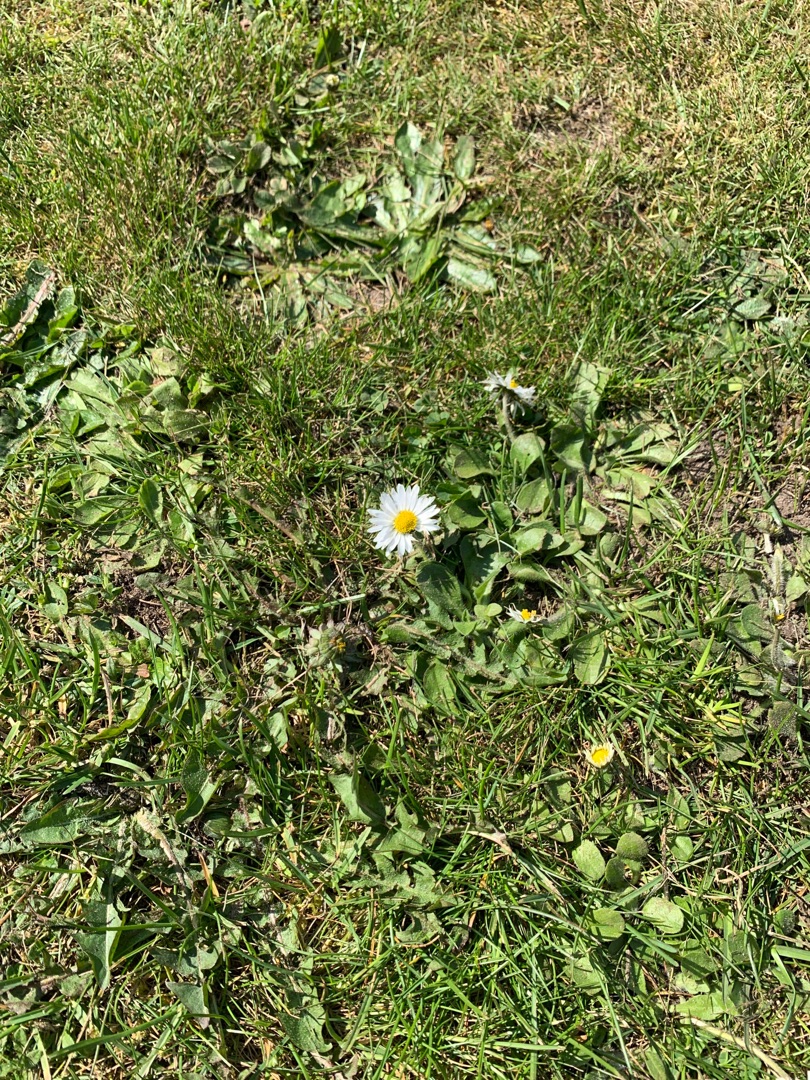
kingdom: Plantae
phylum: Tracheophyta
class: Magnoliopsida
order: Asterales
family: Asteraceae
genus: Bellis
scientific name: Bellis perennis
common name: Tusindfryd
